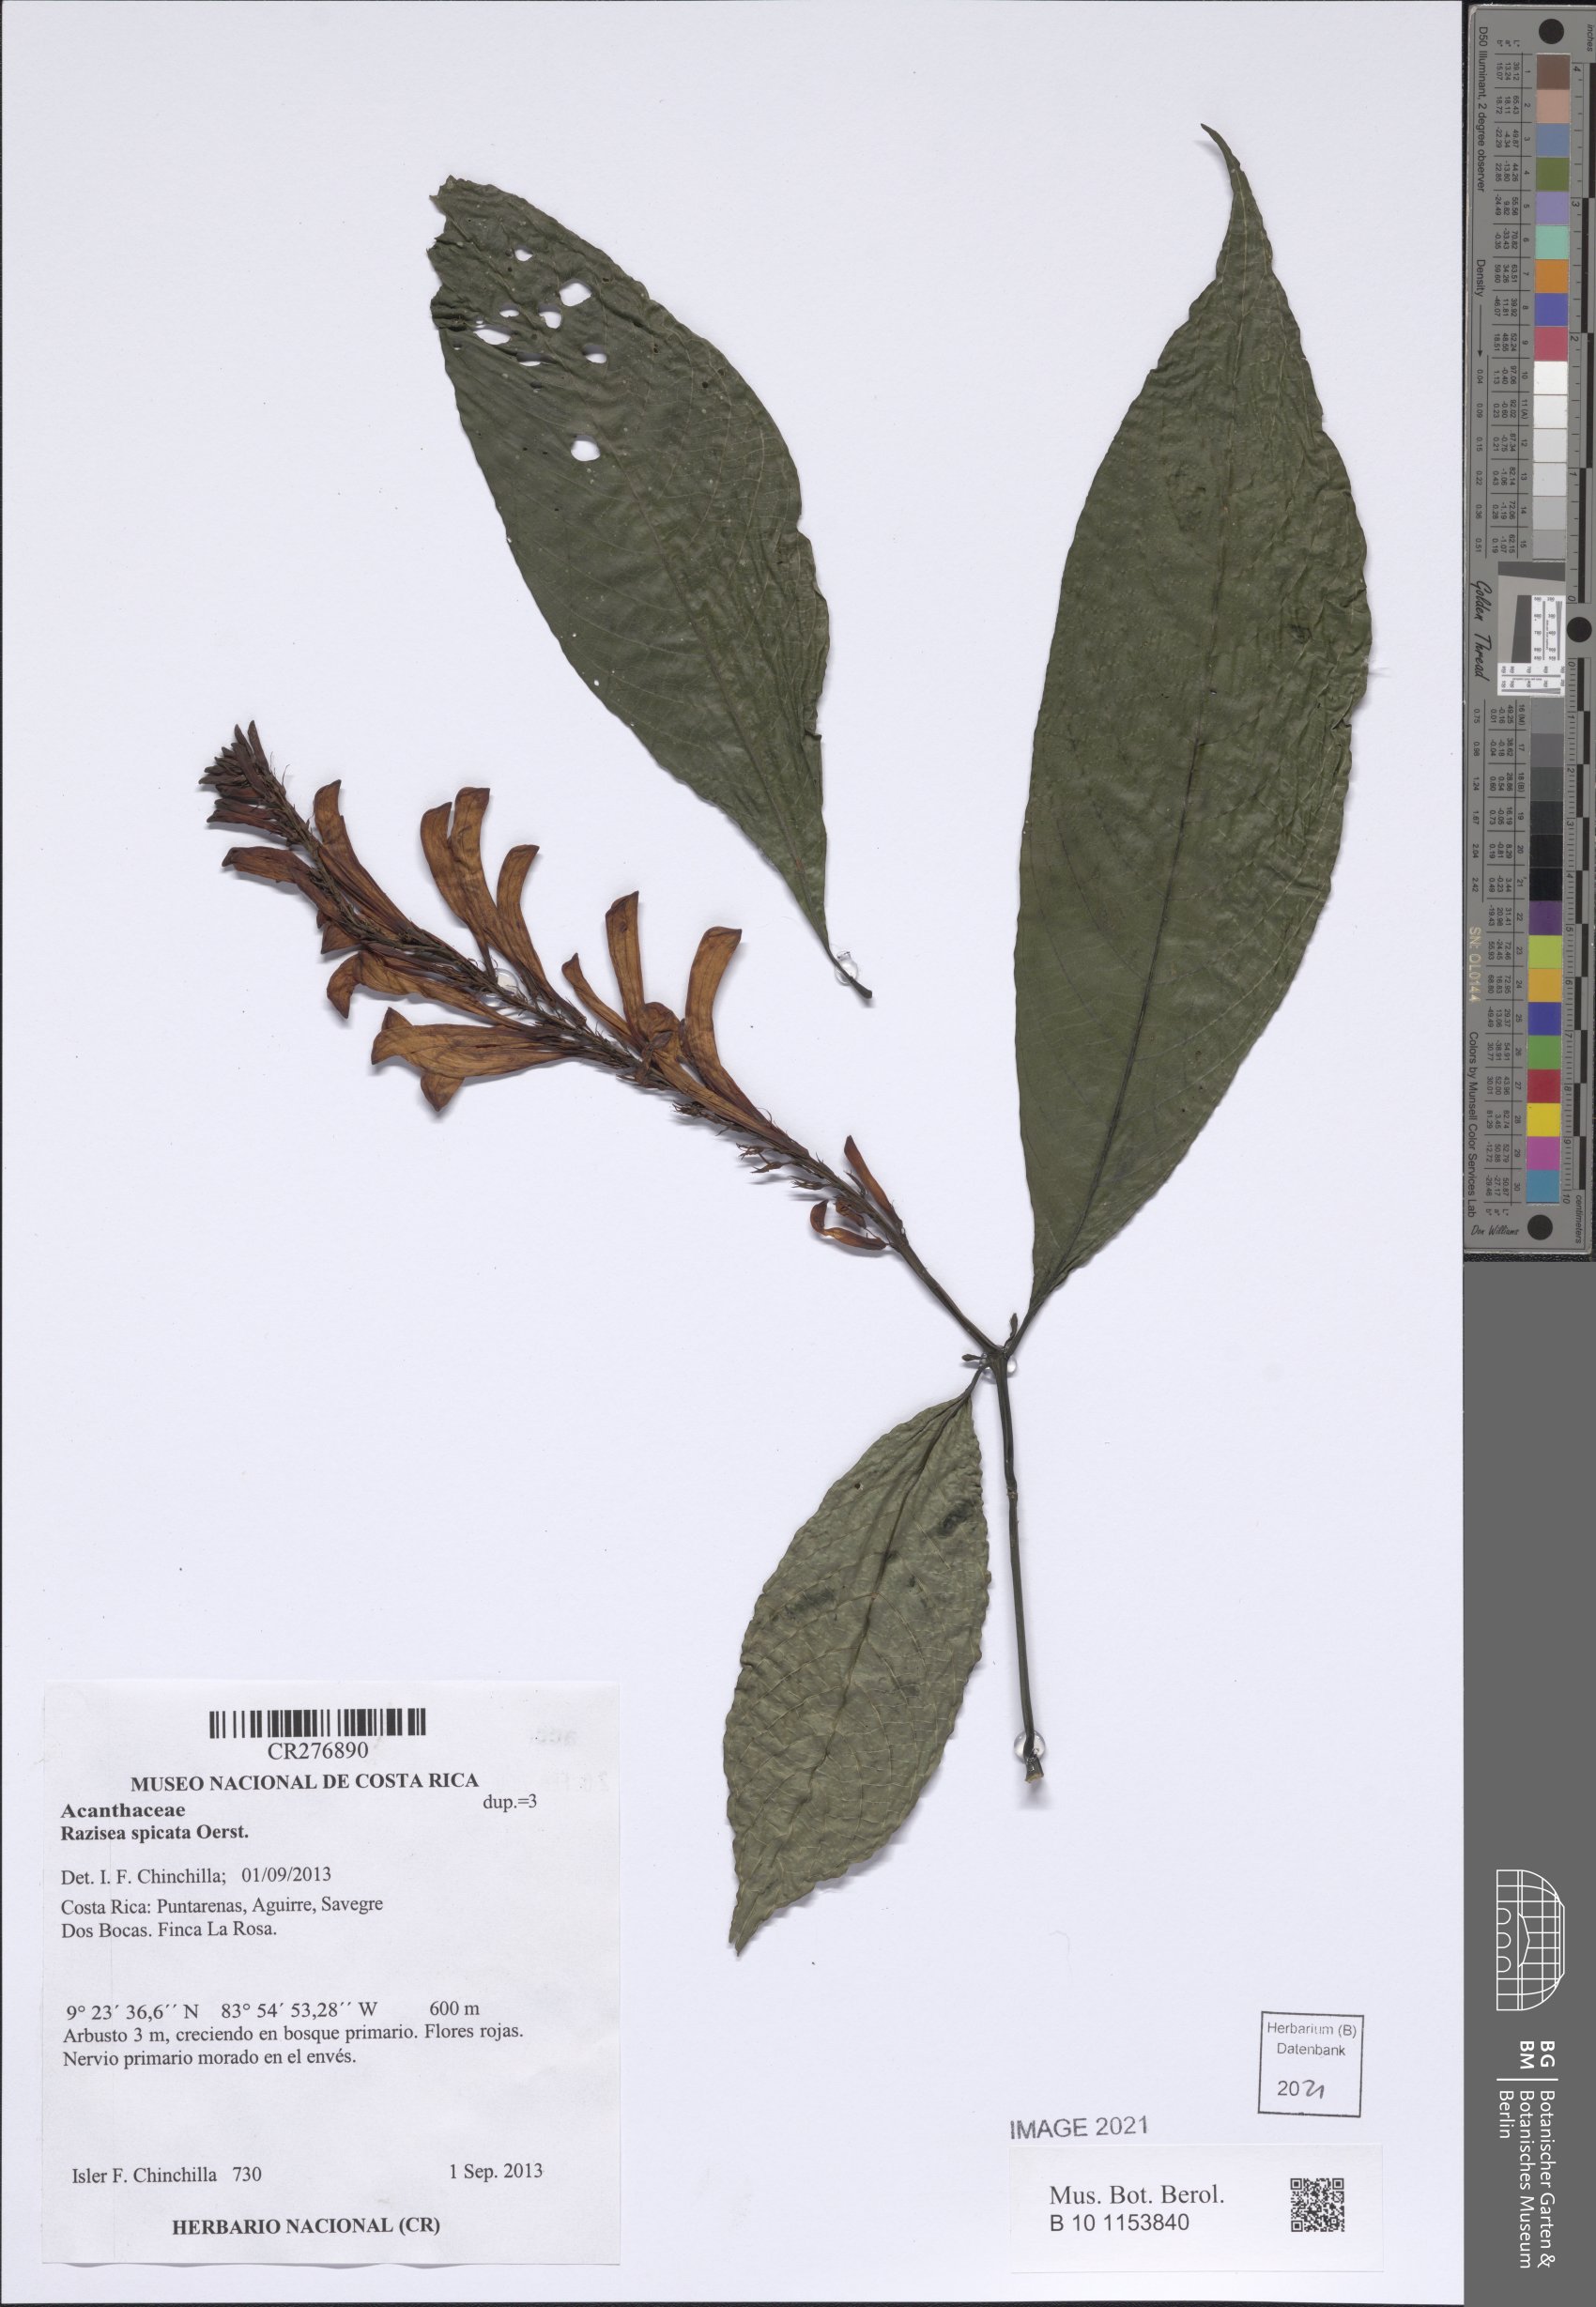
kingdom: Plantae
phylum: Tracheophyta
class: Magnoliopsida
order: Lamiales
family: Acanthaceae
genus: Stenostephanus
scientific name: Stenostephanus leiorhachis
